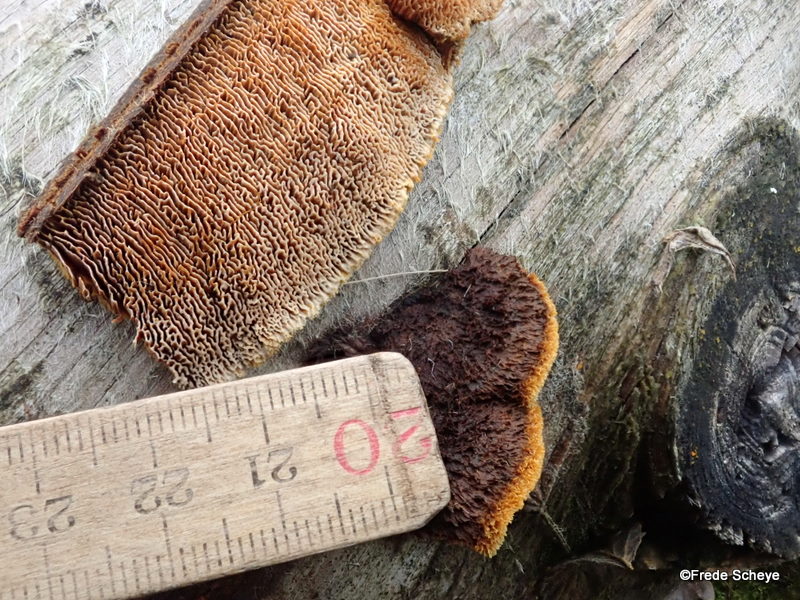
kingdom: Fungi
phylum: Basidiomycota
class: Agaricomycetes
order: Gloeophyllales
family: Gloeophyllaceae
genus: Gloeophyllum
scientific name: Gloeophyllum sepiarium
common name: fyrre-korkhat
